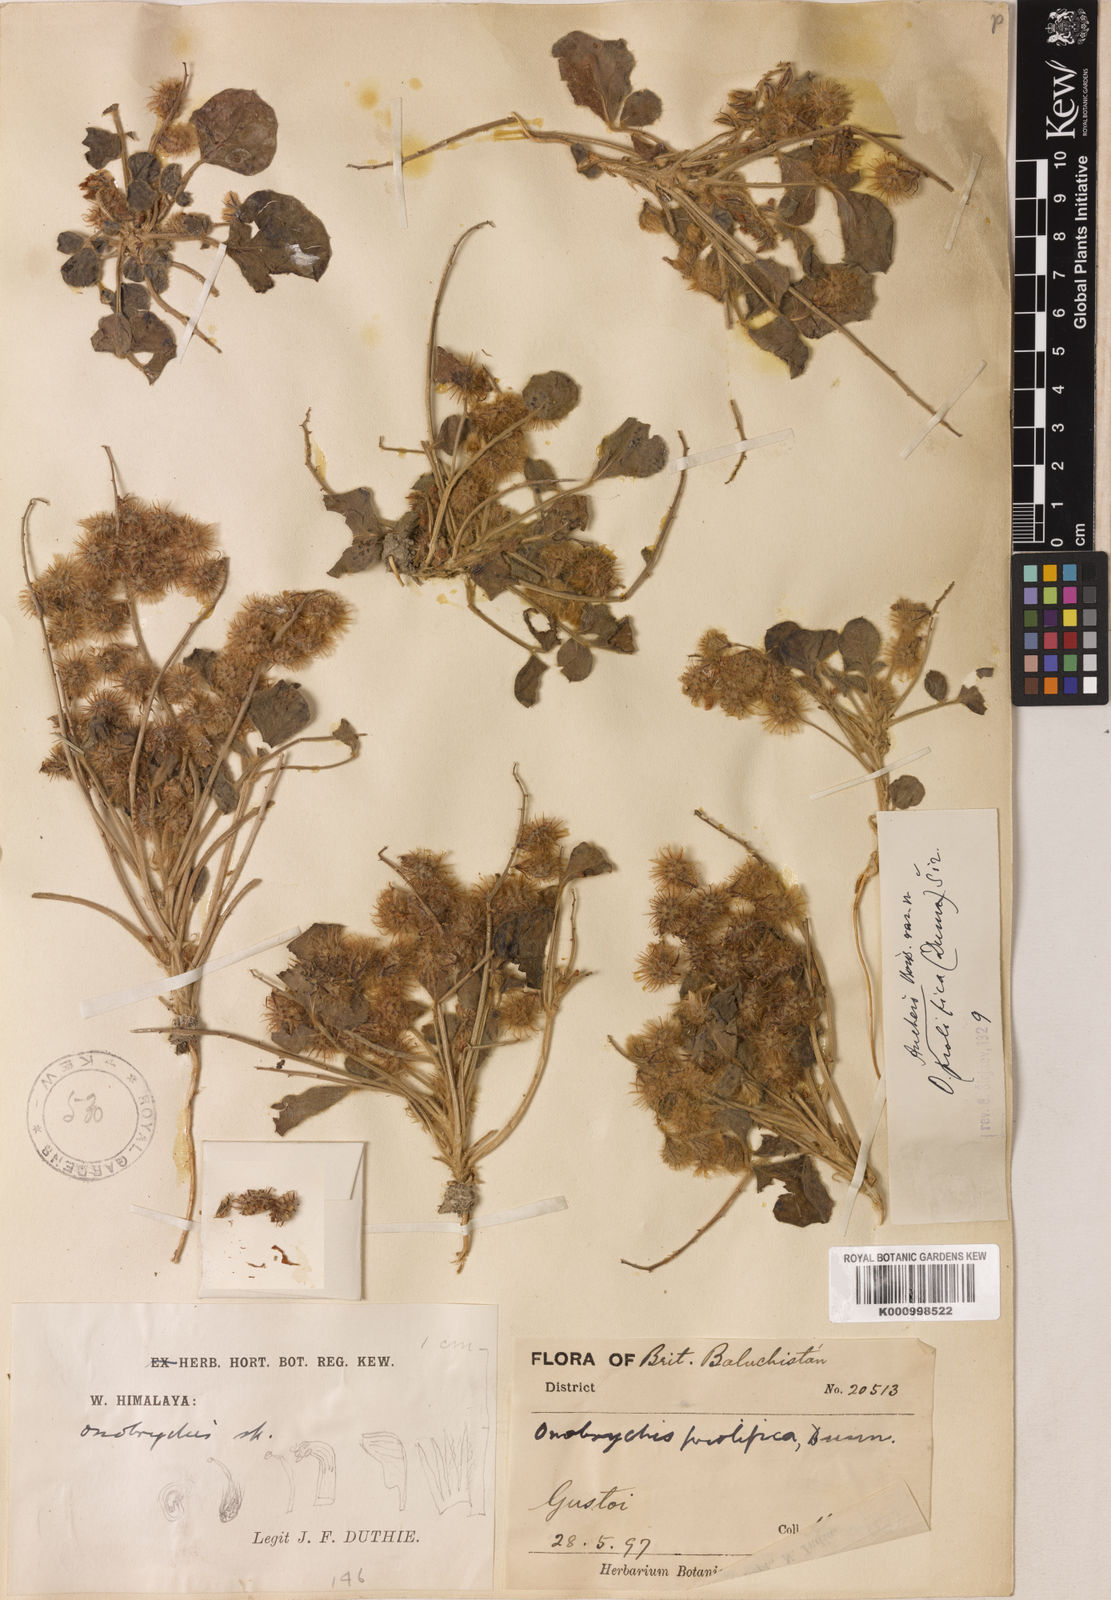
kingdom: Plantae
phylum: Tracheophyta
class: Magnoliopsida
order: Fabales
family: Fabaceae
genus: Onobrychis
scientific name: Onobrychis aucheri
